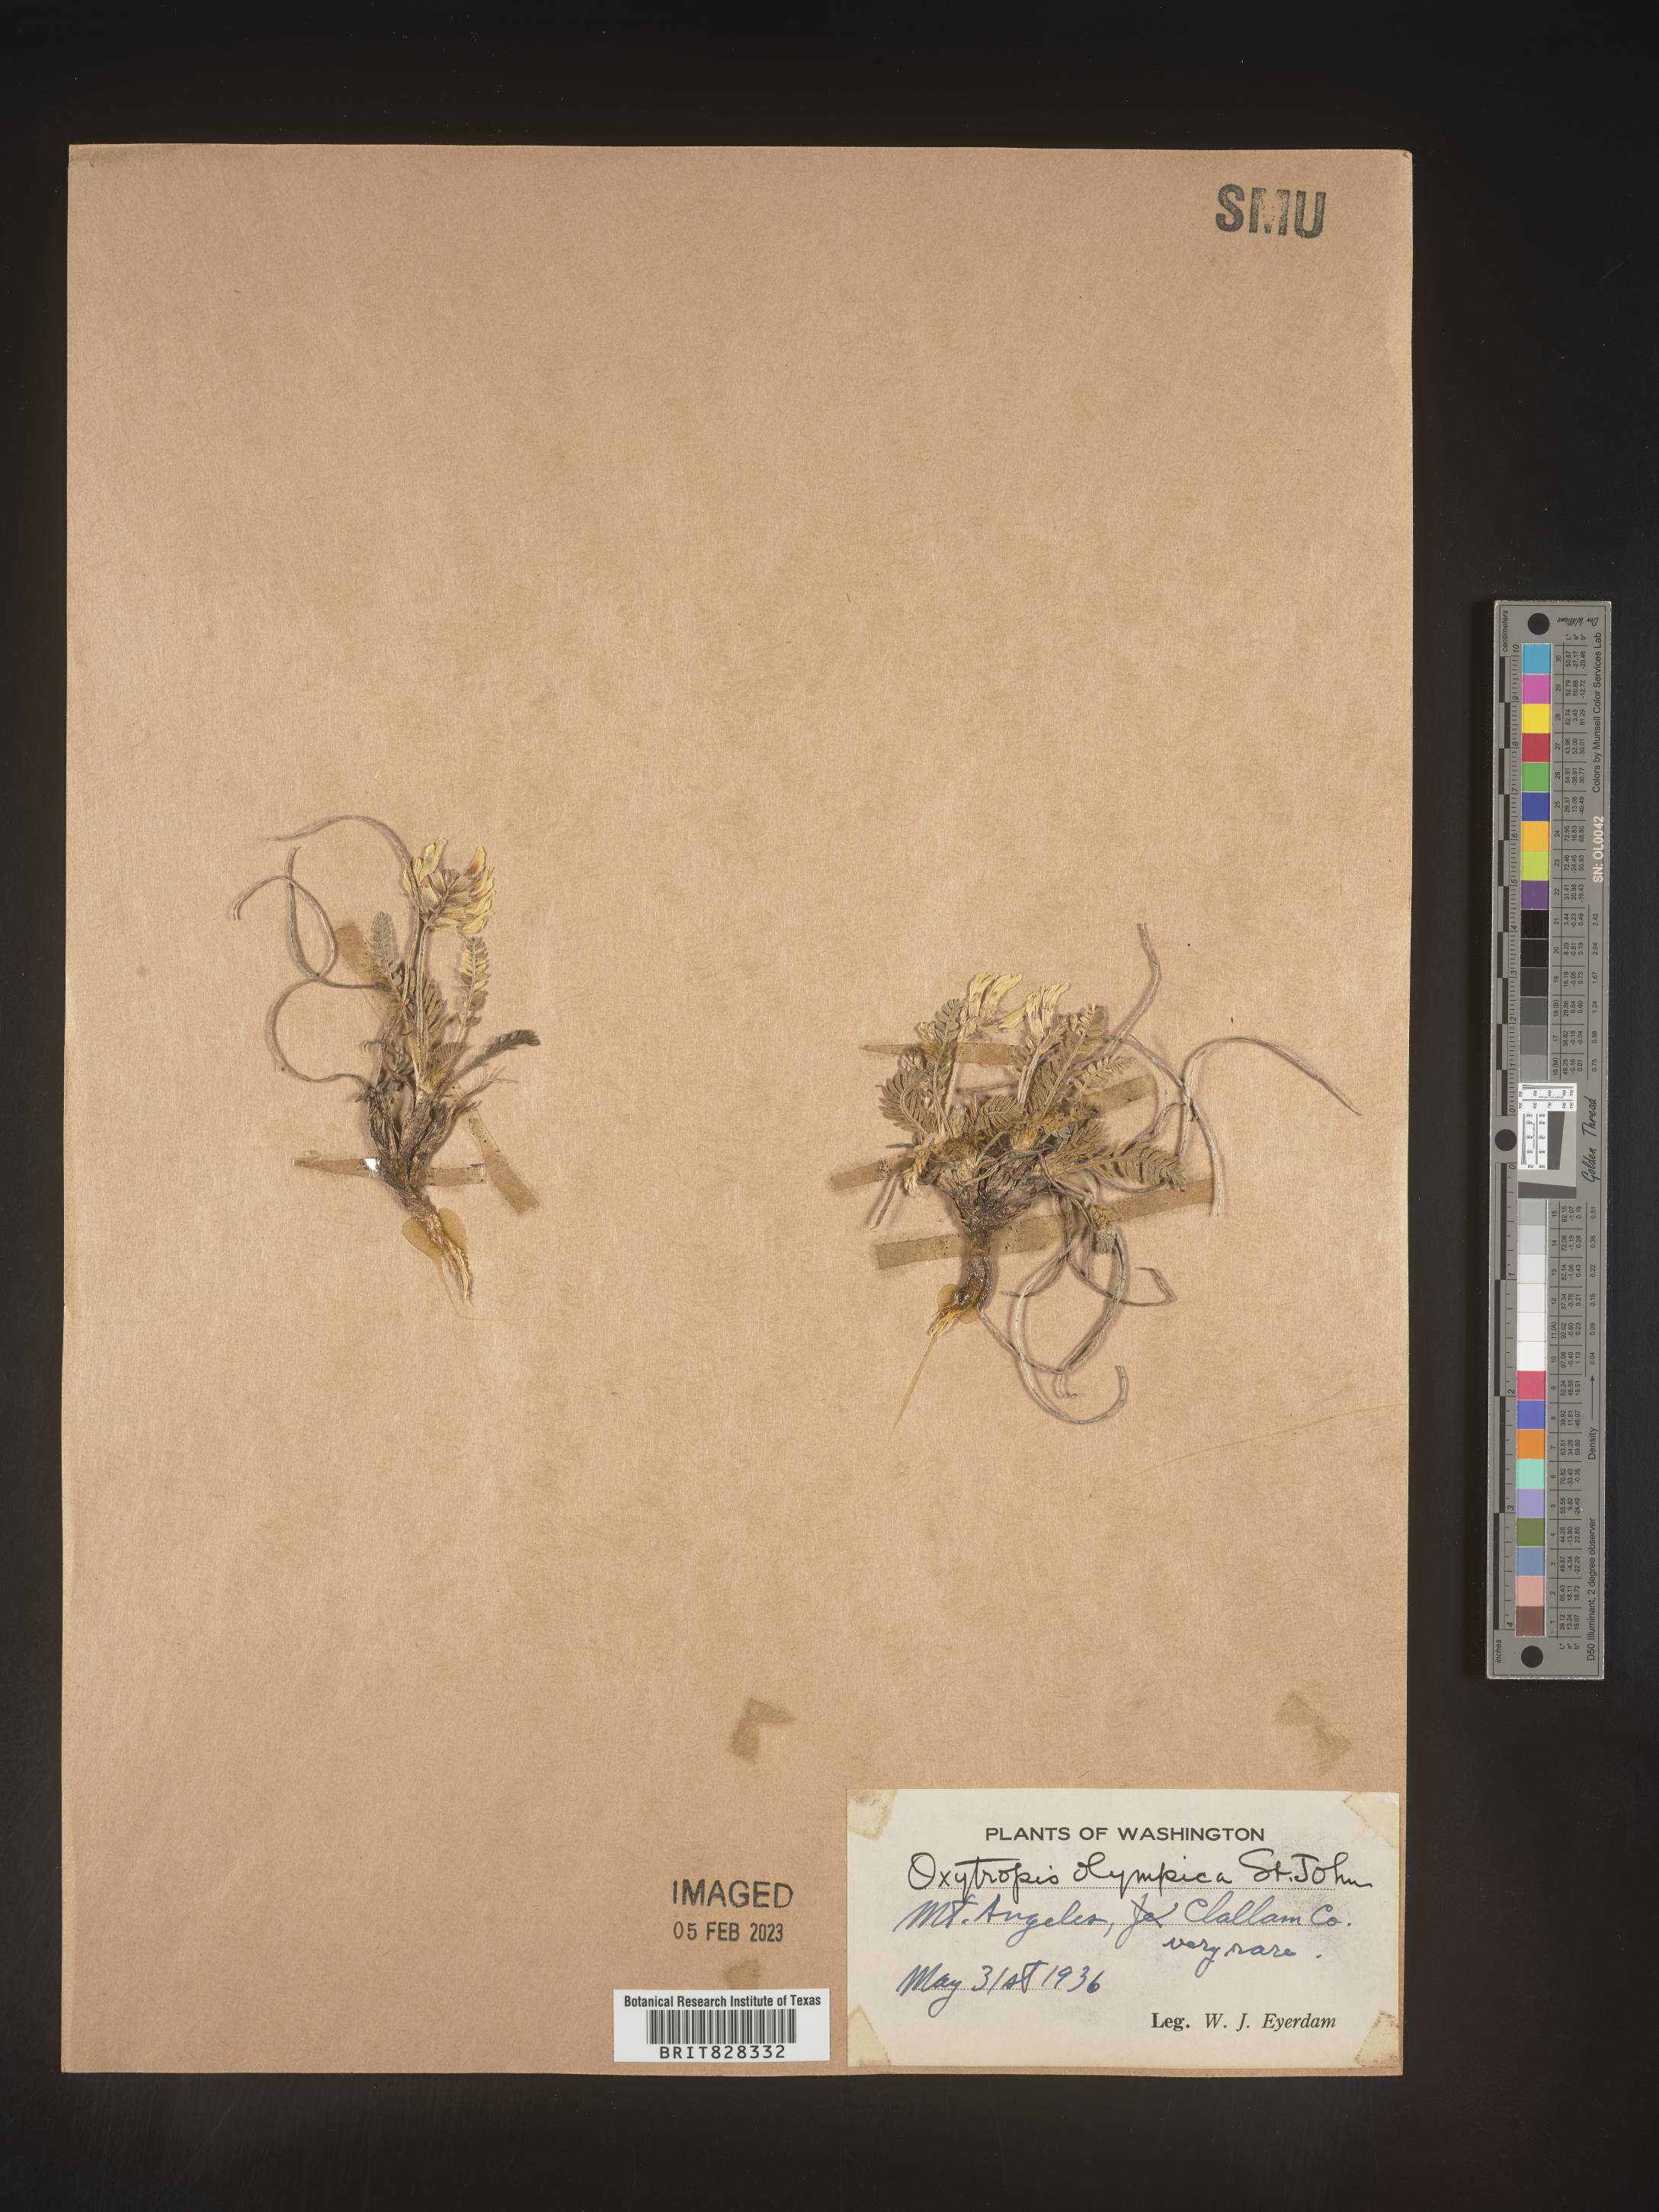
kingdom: Plantae
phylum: Tracheophyta
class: Magnoliopsida
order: Fabales
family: Fabaceae
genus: Oxytropis
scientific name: Oxytropis
